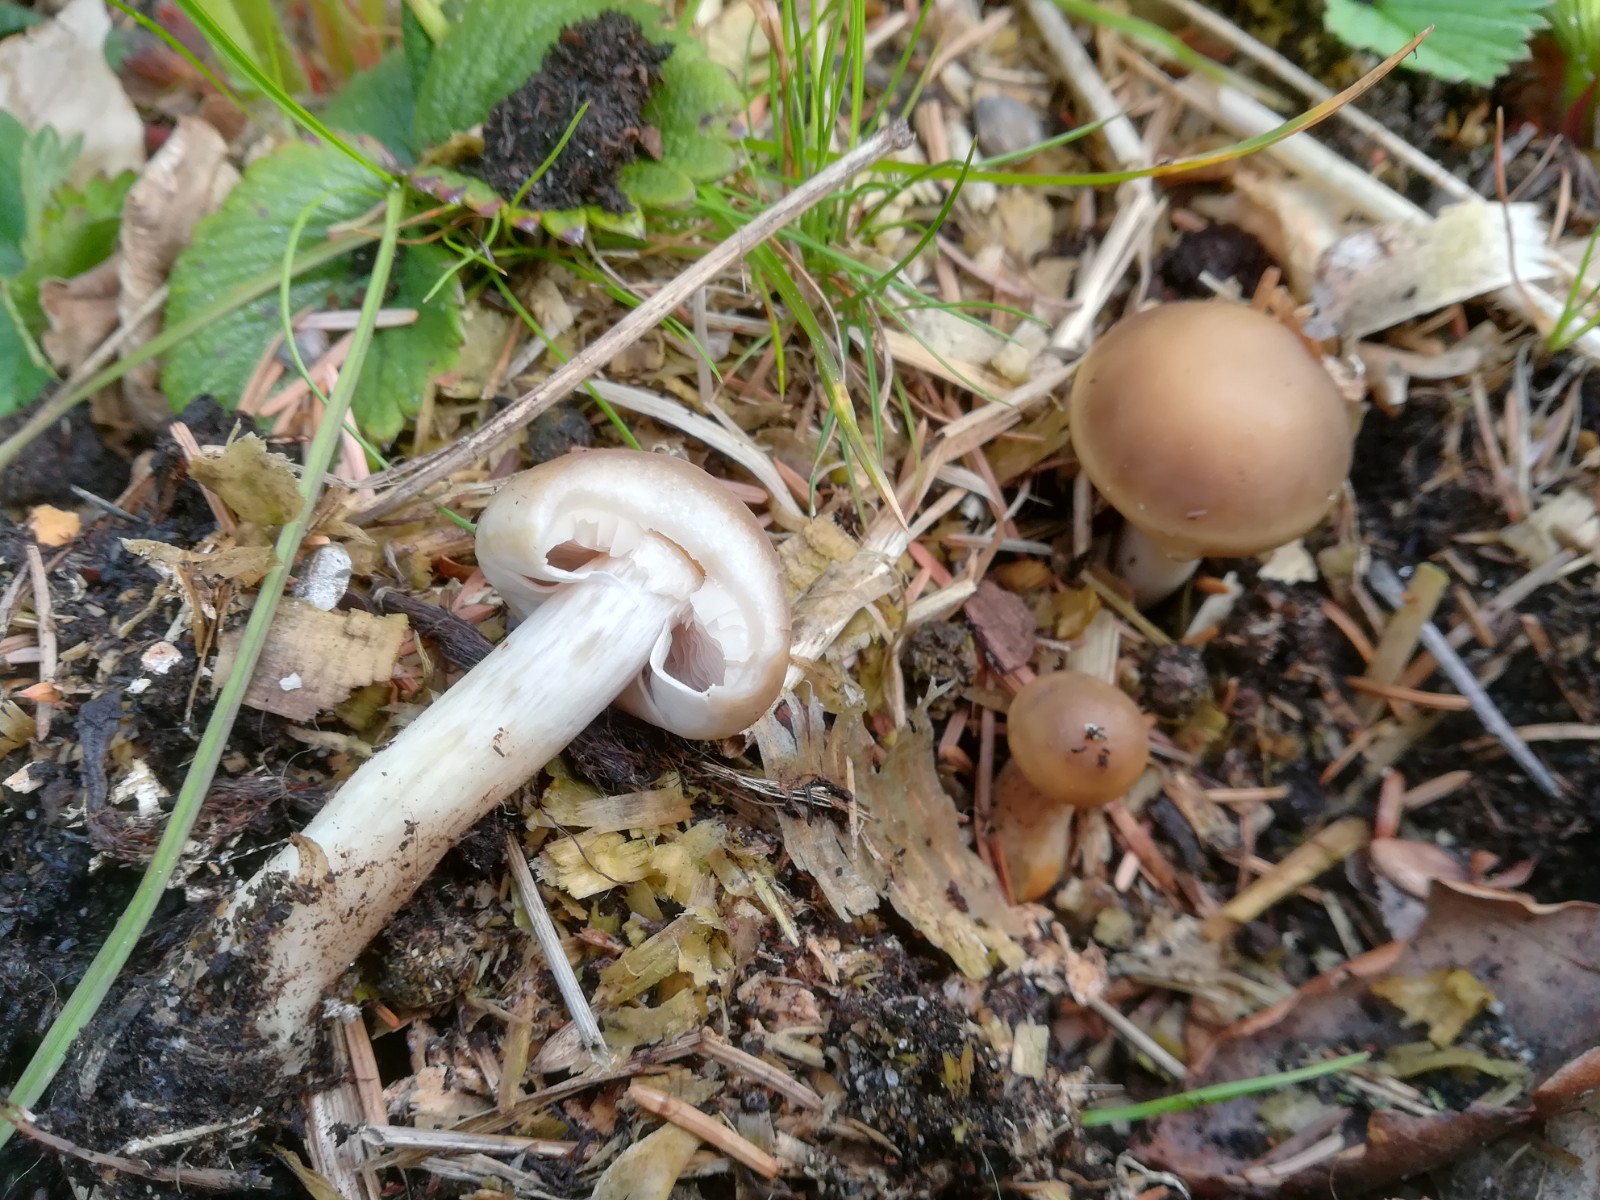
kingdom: Fungi
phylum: Basidiomycota
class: Agaricomycetes
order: Agaricales
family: Strophariaceae
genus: Agrocybe
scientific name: Agrocybe praecox
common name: tidlig agerhat
